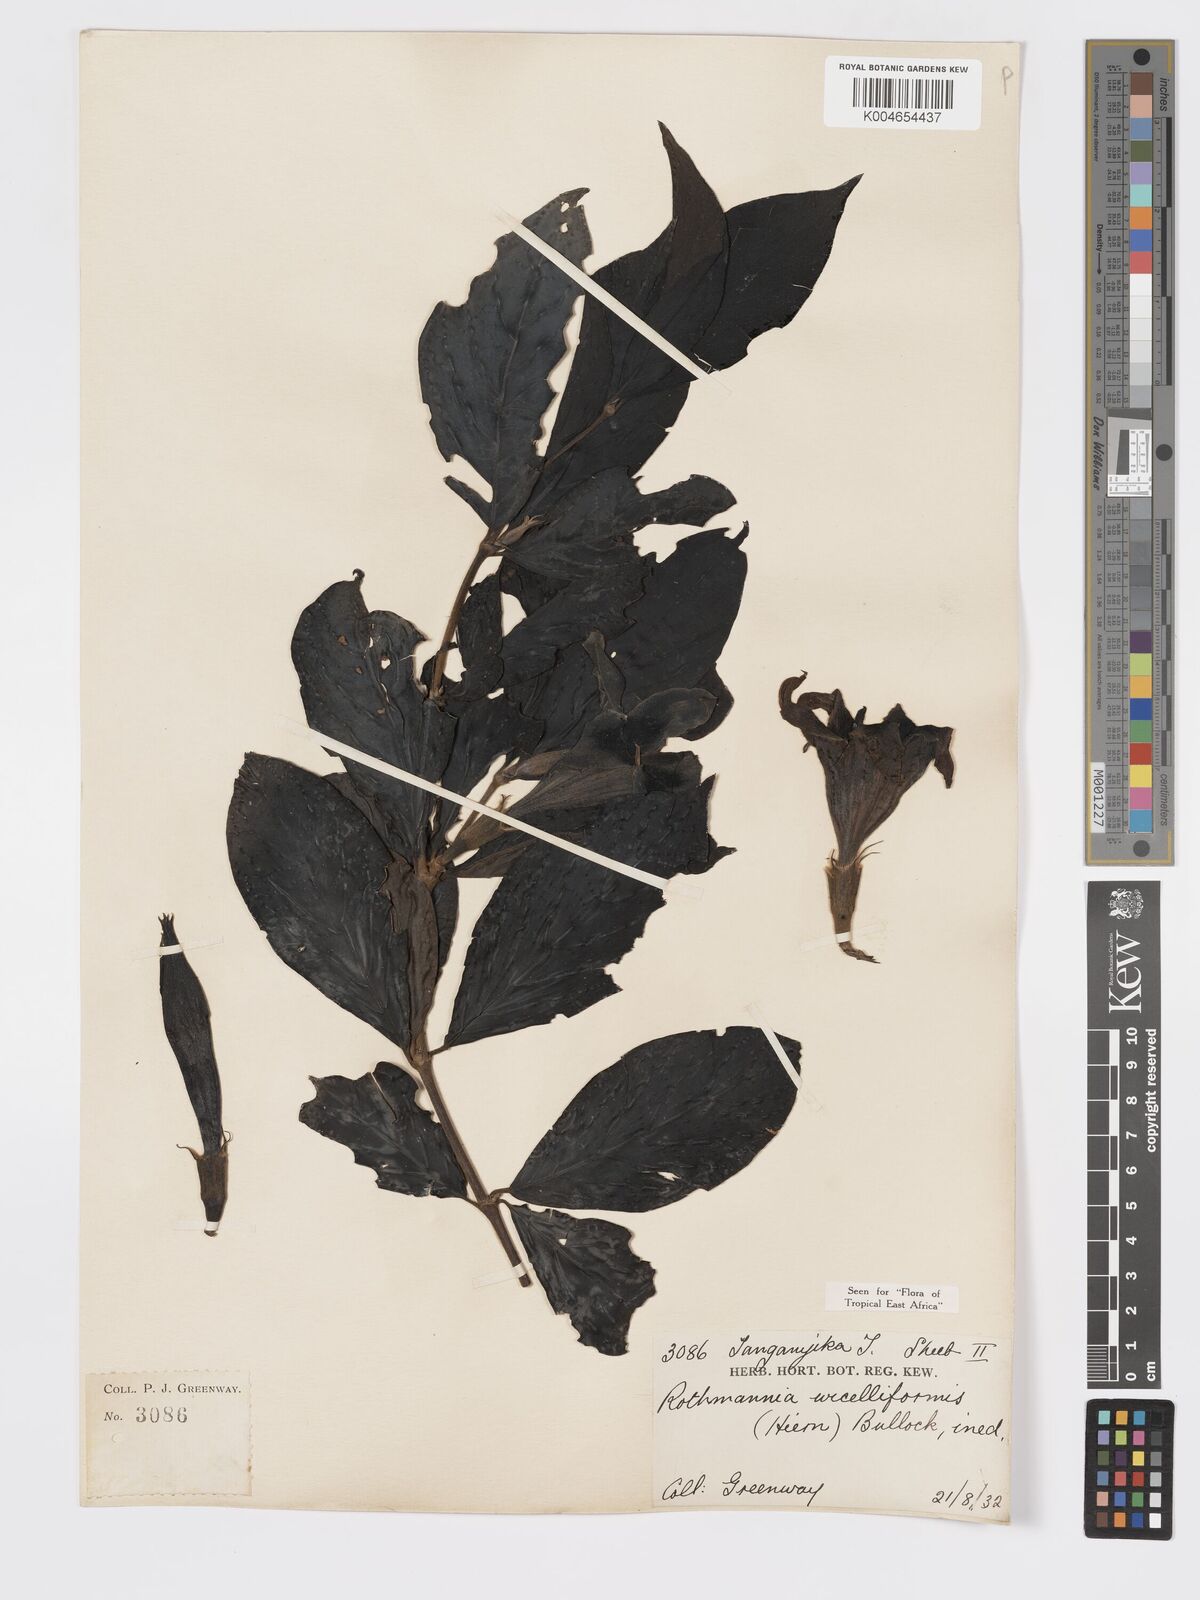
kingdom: Plantae
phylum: Tracheophyta
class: Magnoliopsida
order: Gentianales
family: Rubiaceae
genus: Rothmannia
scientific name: Rothmannia urcelliformis
